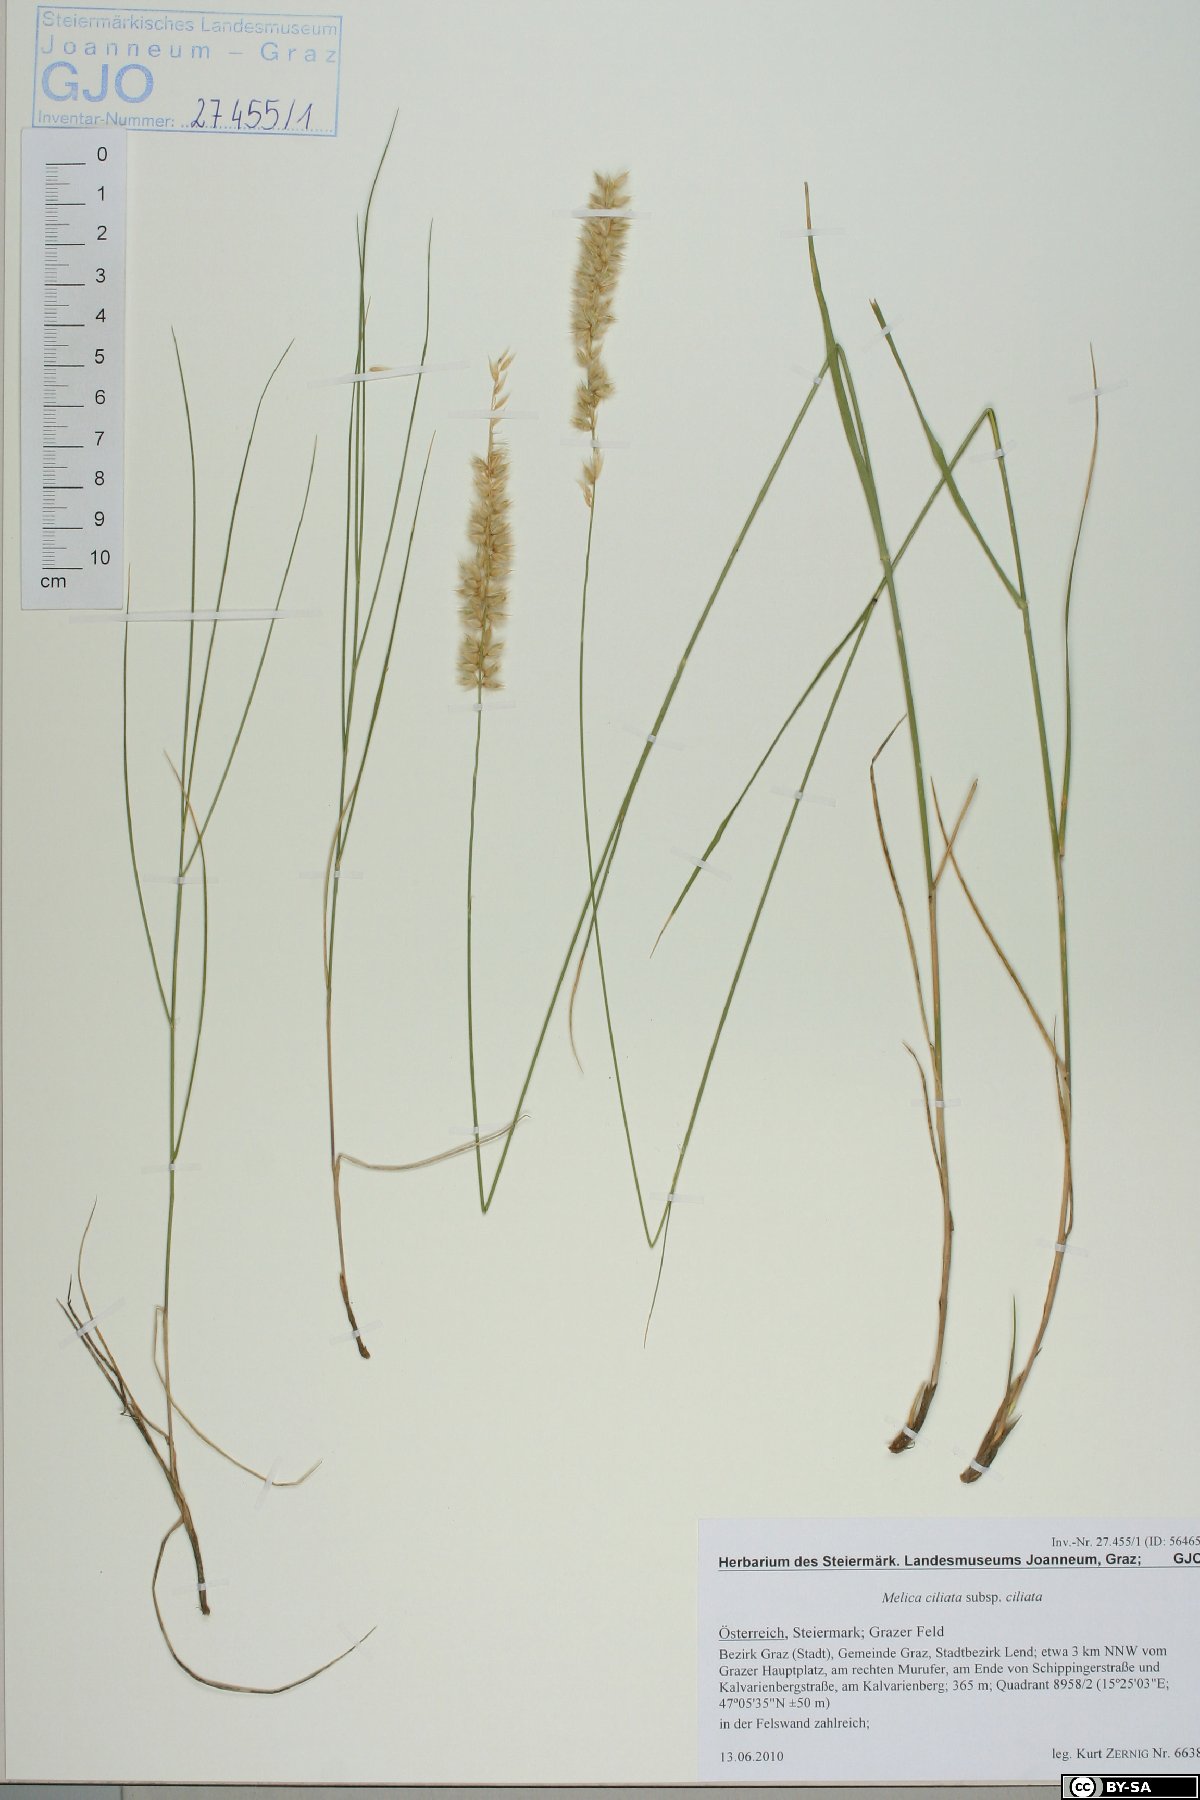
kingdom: Plantae
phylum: Tracheophyta
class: Liliopsida
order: Poales
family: Poaceae
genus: Melica
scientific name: Melica ciliata
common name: Hairy melicgrass
